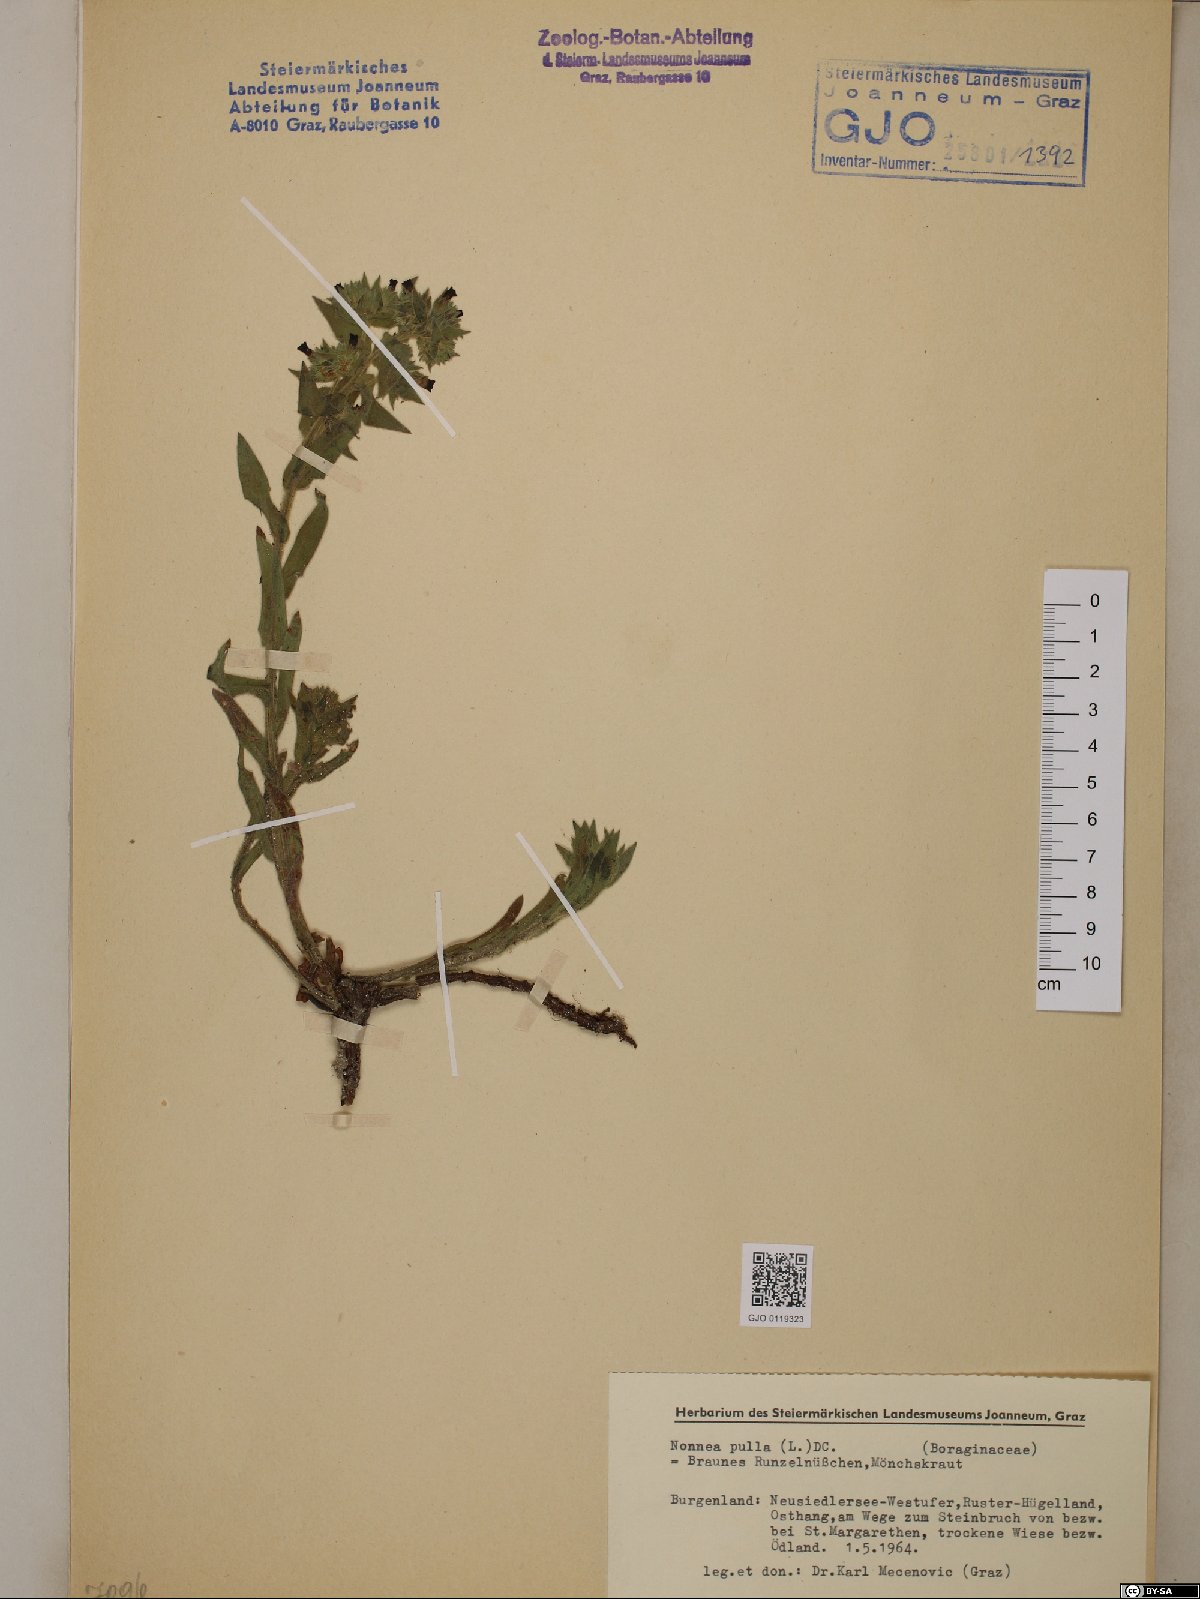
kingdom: Plantae
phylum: Tracheophyta
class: Magnoliopsida
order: Boraginales
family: Boraginaceae
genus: Nonea
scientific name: Nonea pulla
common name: Brown nonea
